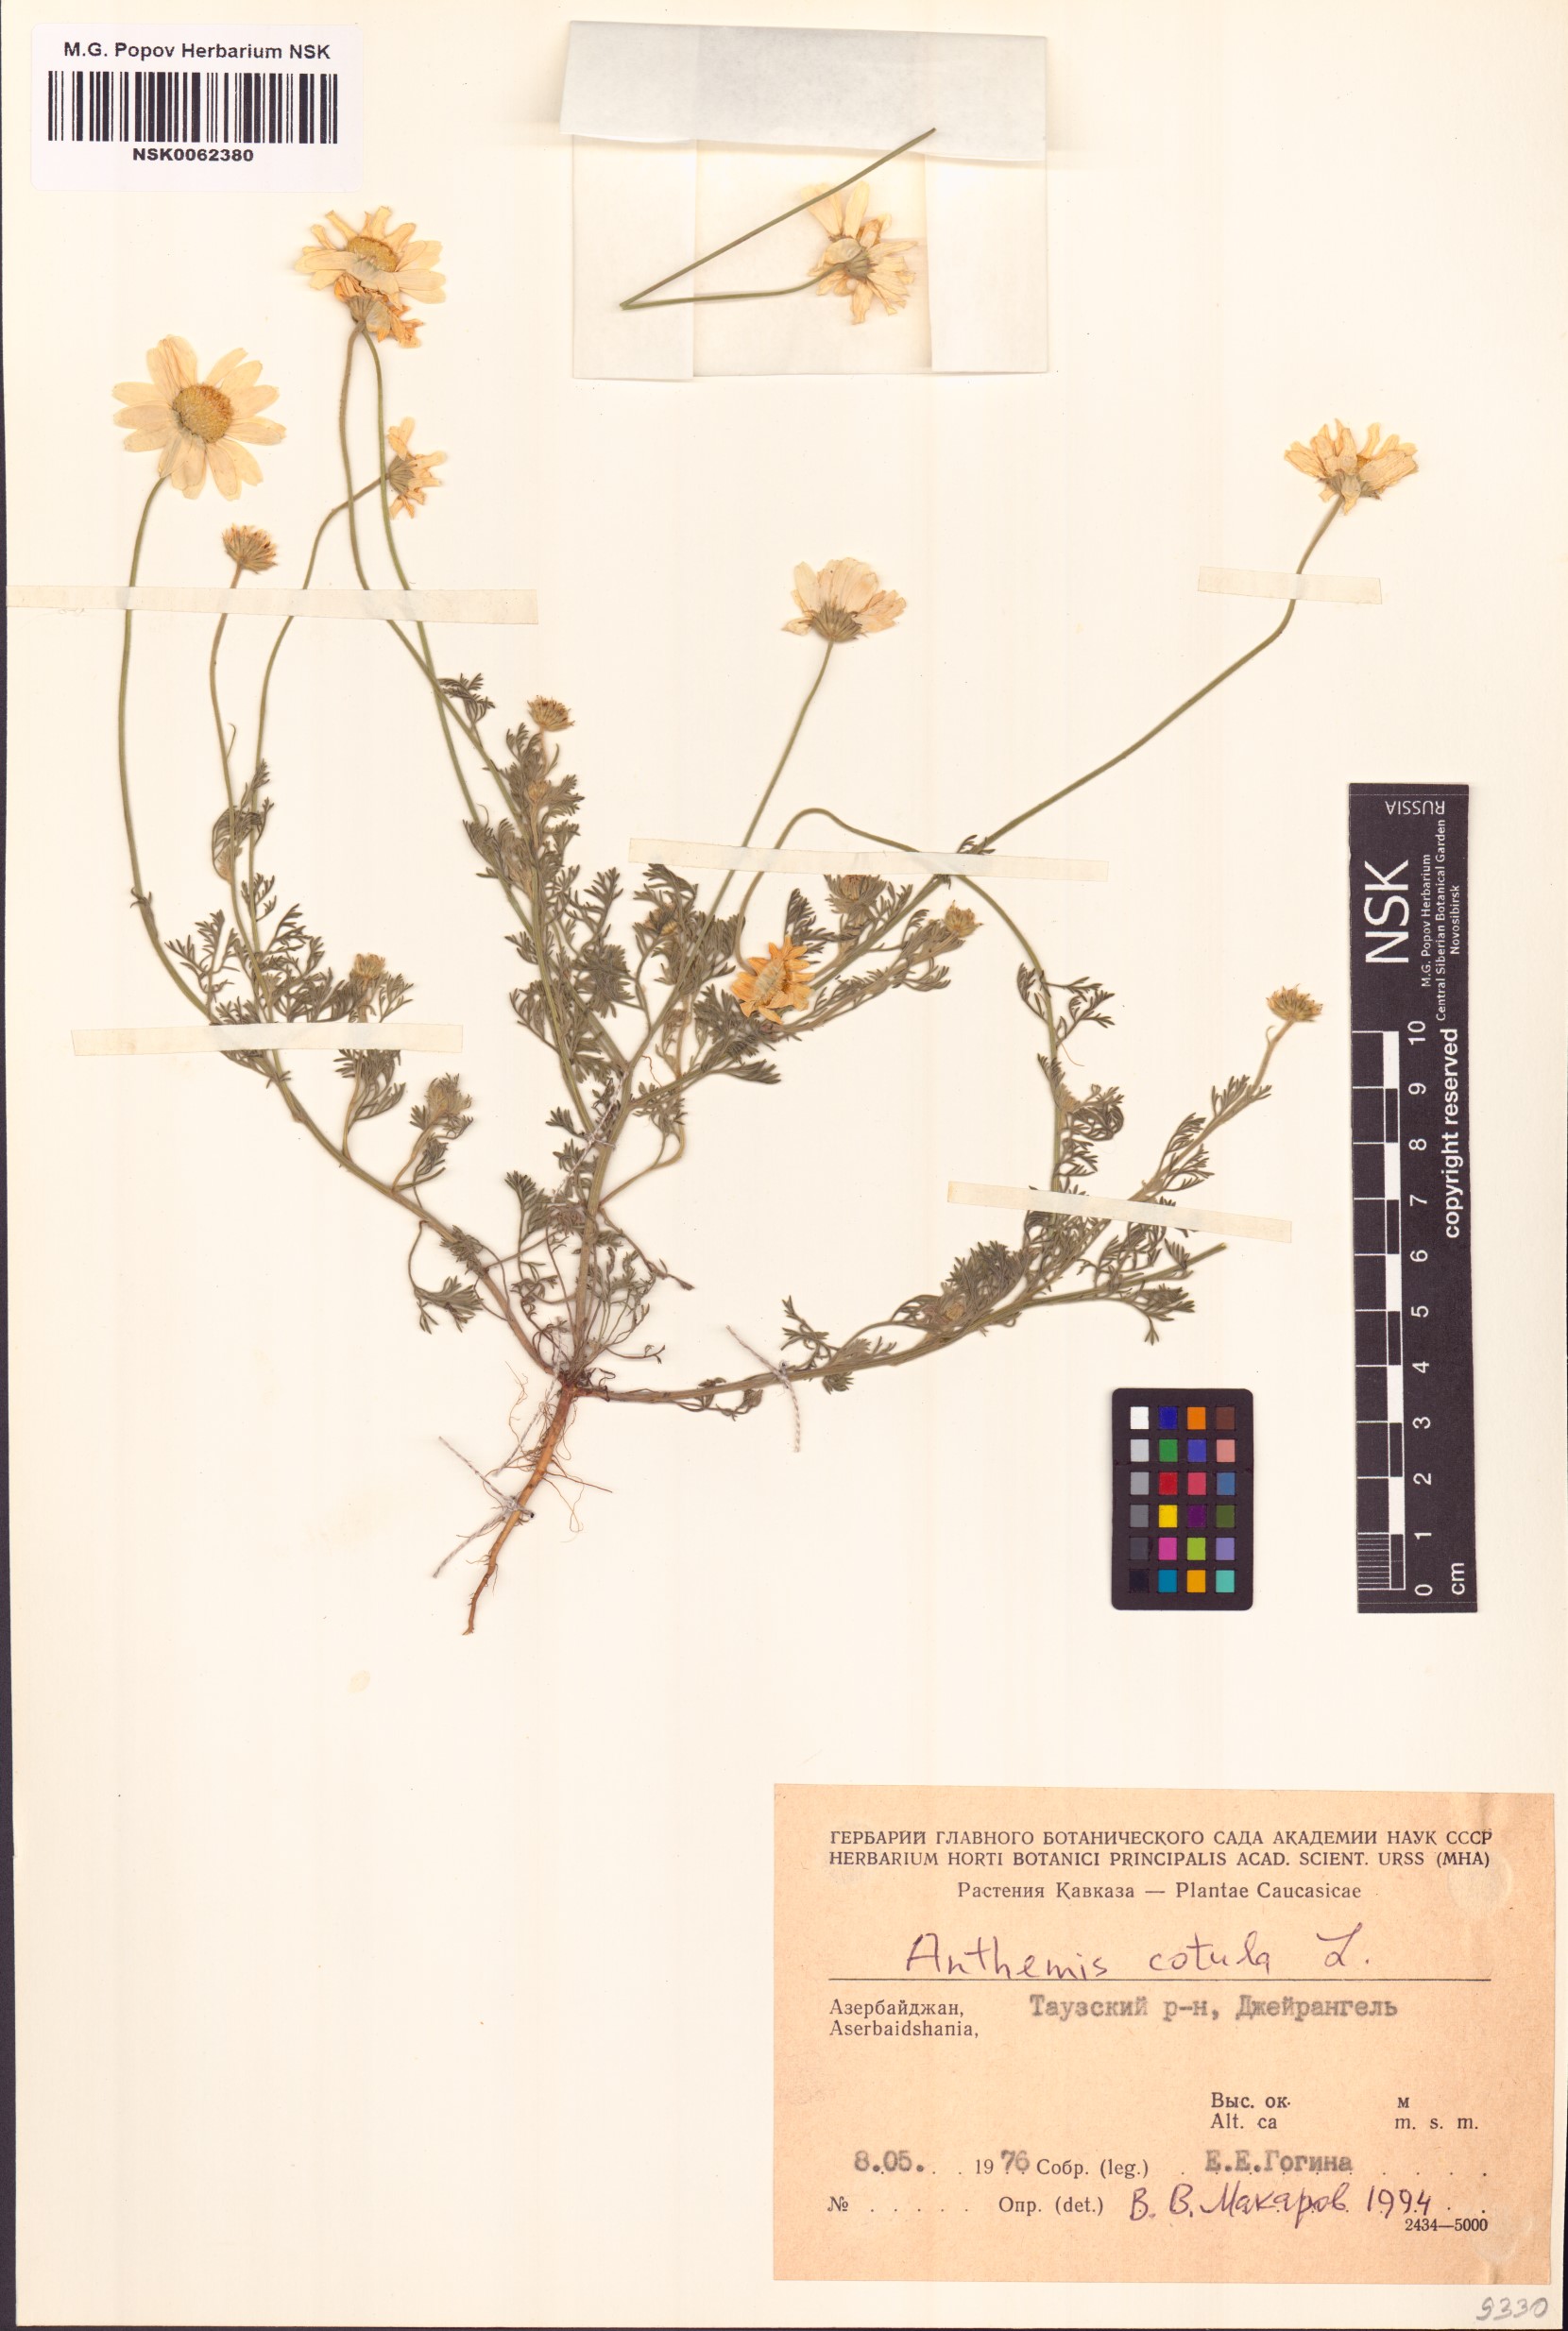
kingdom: Plantae
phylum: Tracheophyta
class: Magnoliopsida
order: Asterales
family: Asteraceae
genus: Anthemis
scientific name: Anthemis cotula
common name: Stinking chamomile
